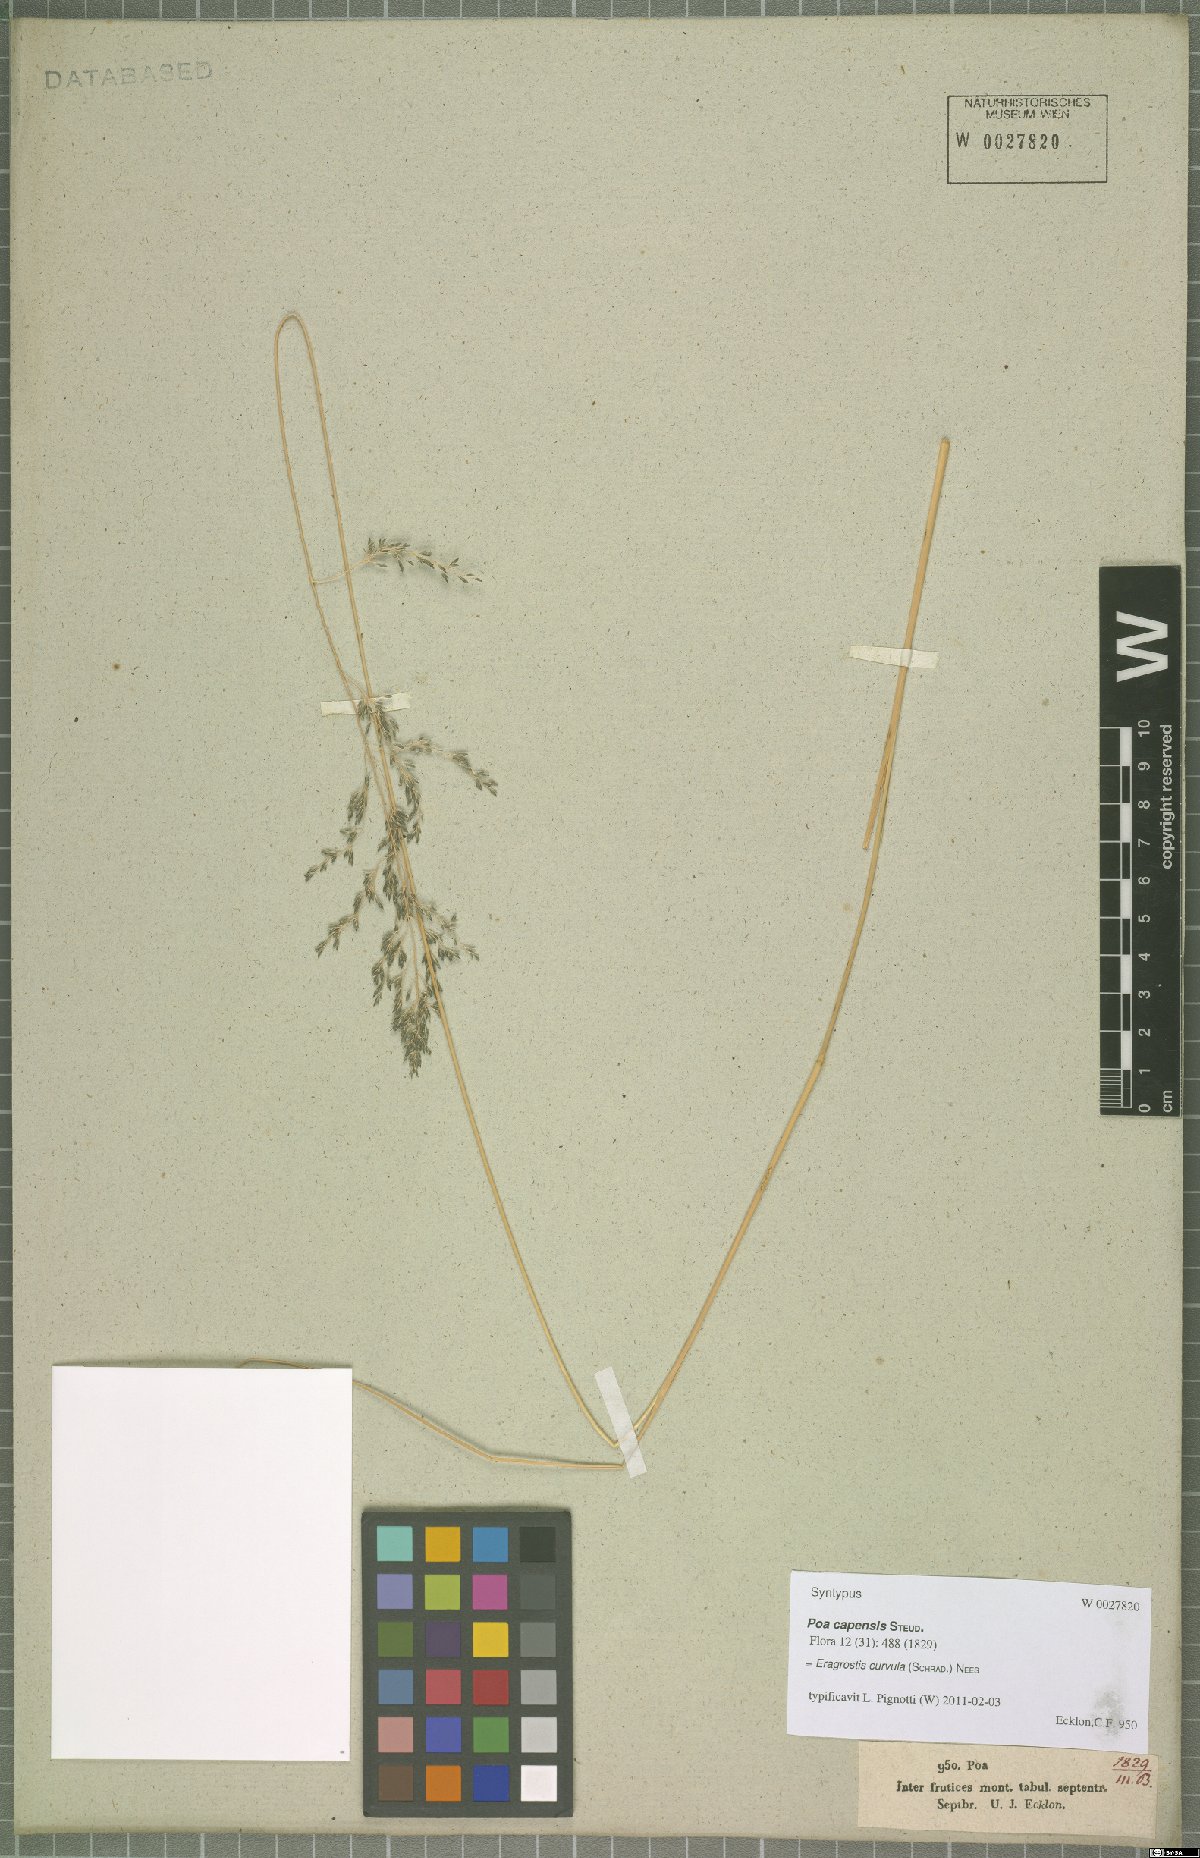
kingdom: Plantae
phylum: Tracheophyta
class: Liliopsida
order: Poales
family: Poaceae
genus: Eragrostis
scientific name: Eragrostis curvula
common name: African love-grass
